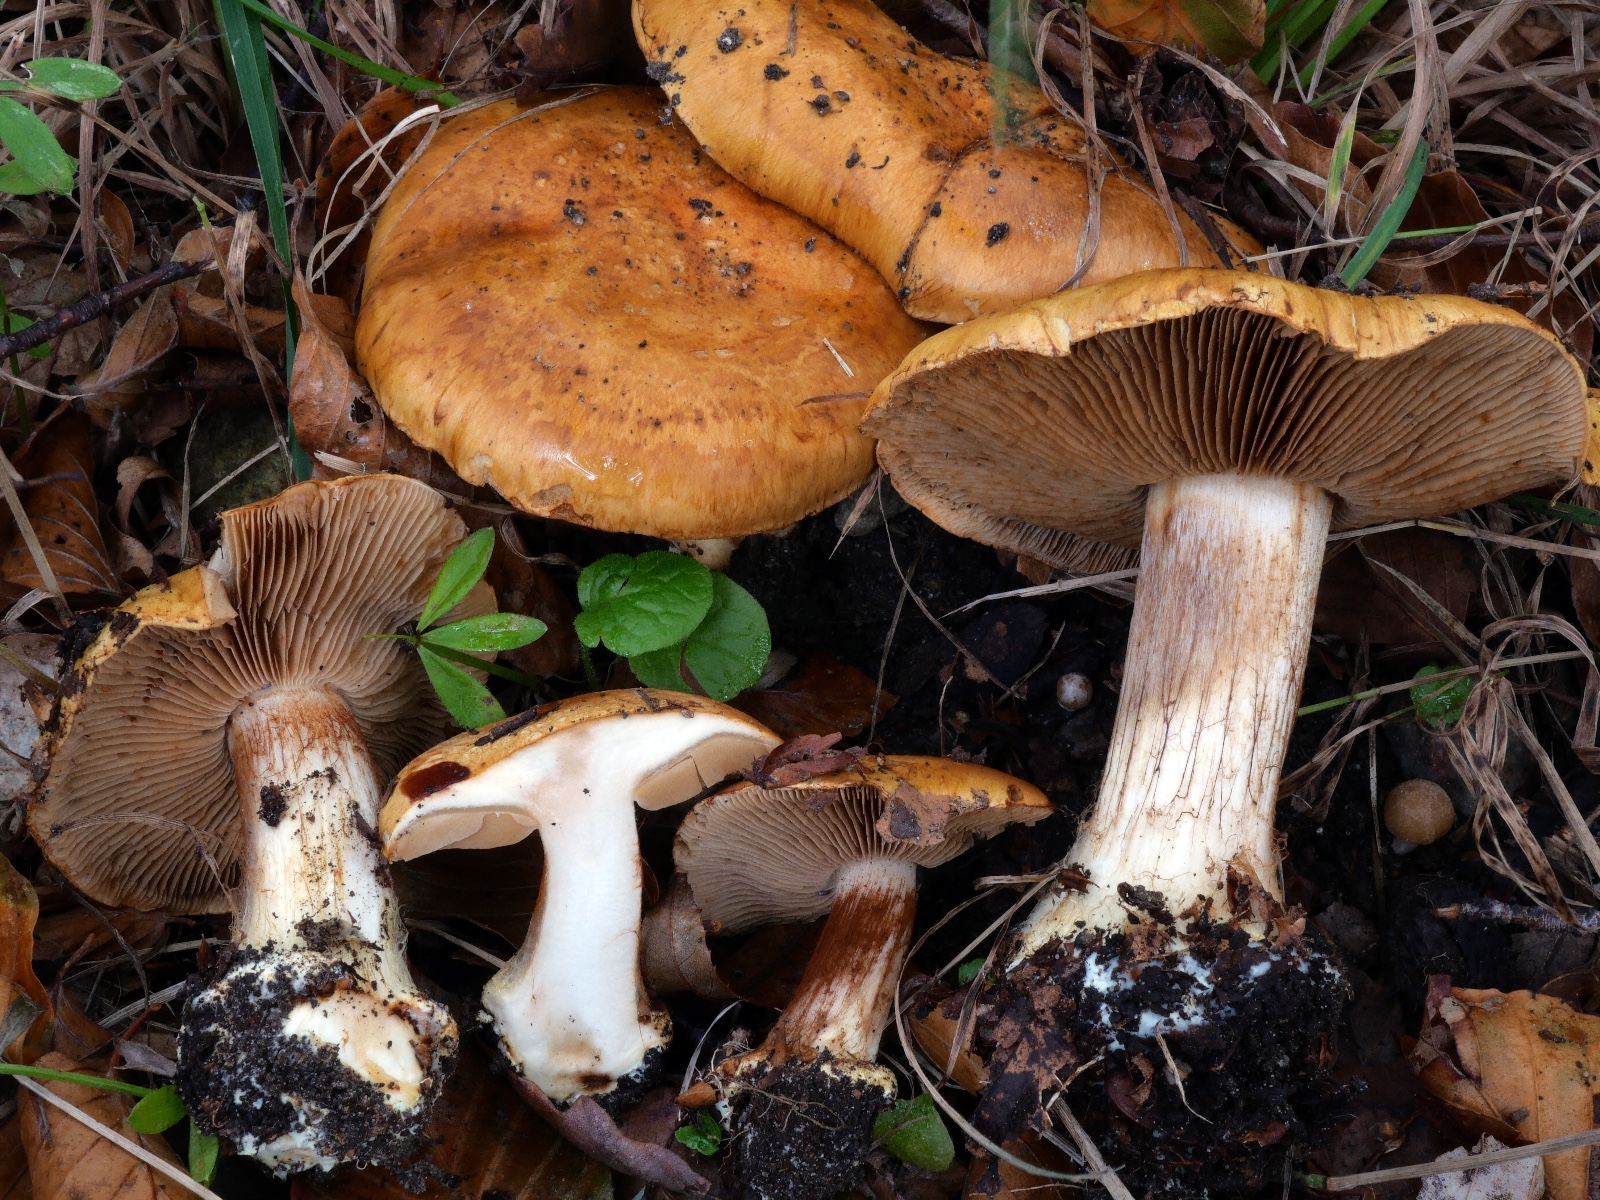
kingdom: Fungi
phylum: Basidiomycota
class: Agaricomycetes
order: Agaricales
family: Cortinariaceae
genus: Calonarius
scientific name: Calonarius langeorum
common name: Langes slørhat
